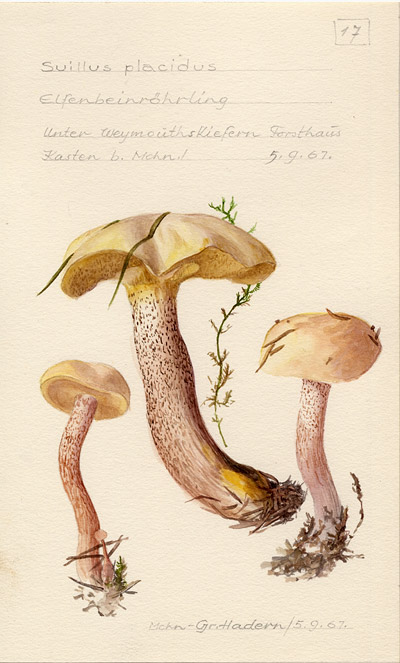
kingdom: Fungi
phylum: Basidiomycota
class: Agaricomycetes
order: Boletales
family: Suillaceae
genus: Suillus
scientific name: Suillus placidus
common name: Slippery white bolete
